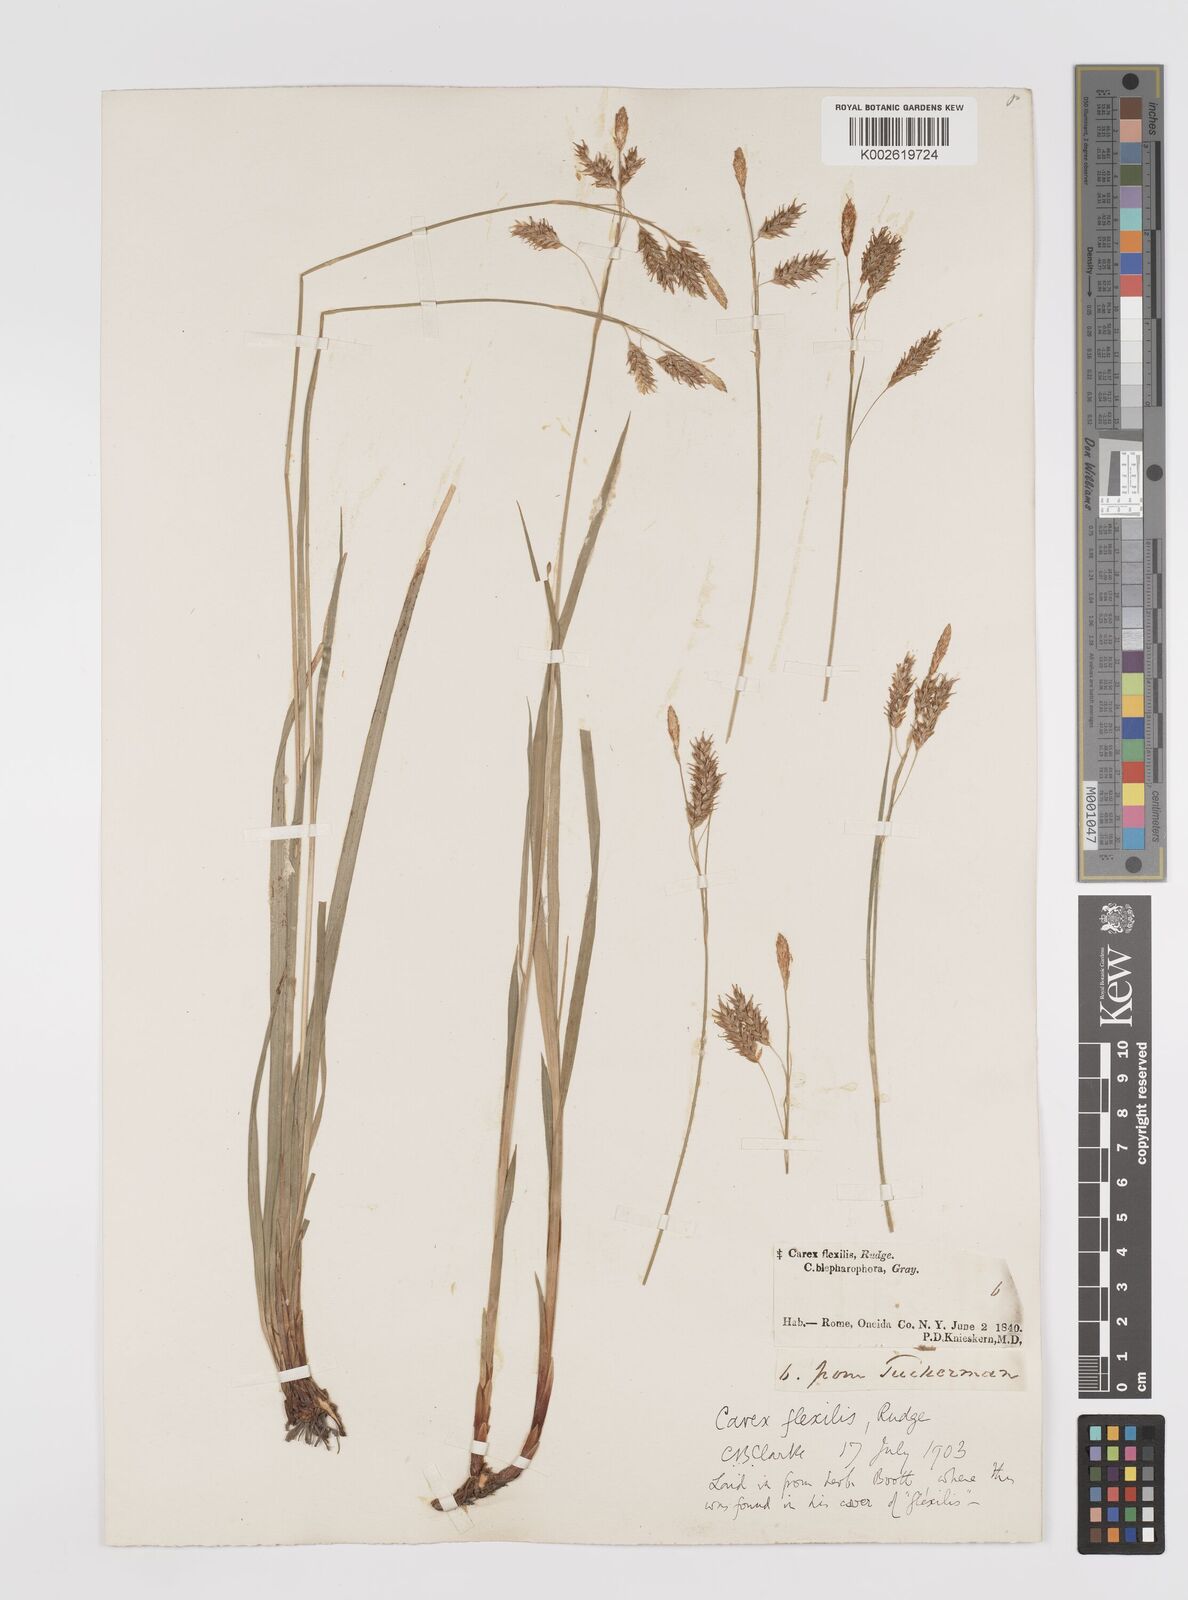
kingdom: Plantae
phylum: Tracheophyta
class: Liliopsida
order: Poales
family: Cyperaceae
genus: Carex
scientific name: Carex castanea
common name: Chestnut sedge
